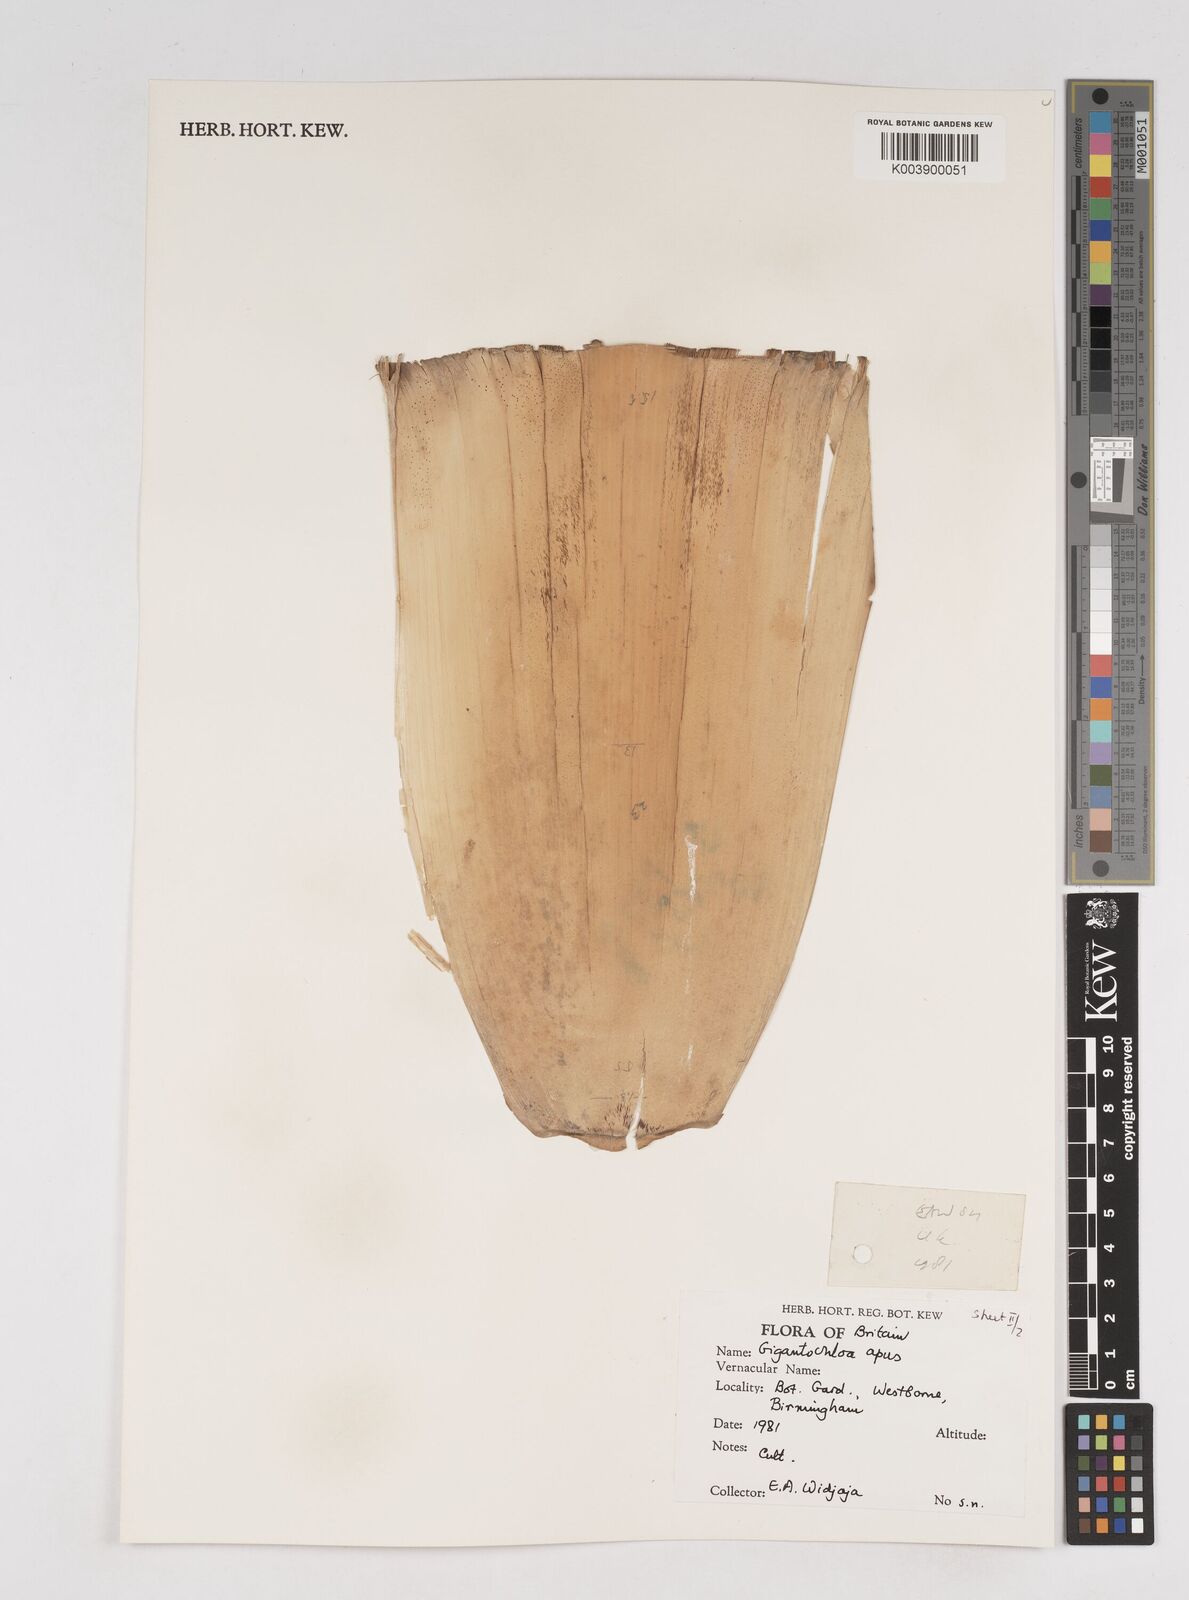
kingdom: Plantae
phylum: Tracheophyta
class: Liliopsida
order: Poales
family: Poaceae
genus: Gigantochloa
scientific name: Gigantochloa apus
